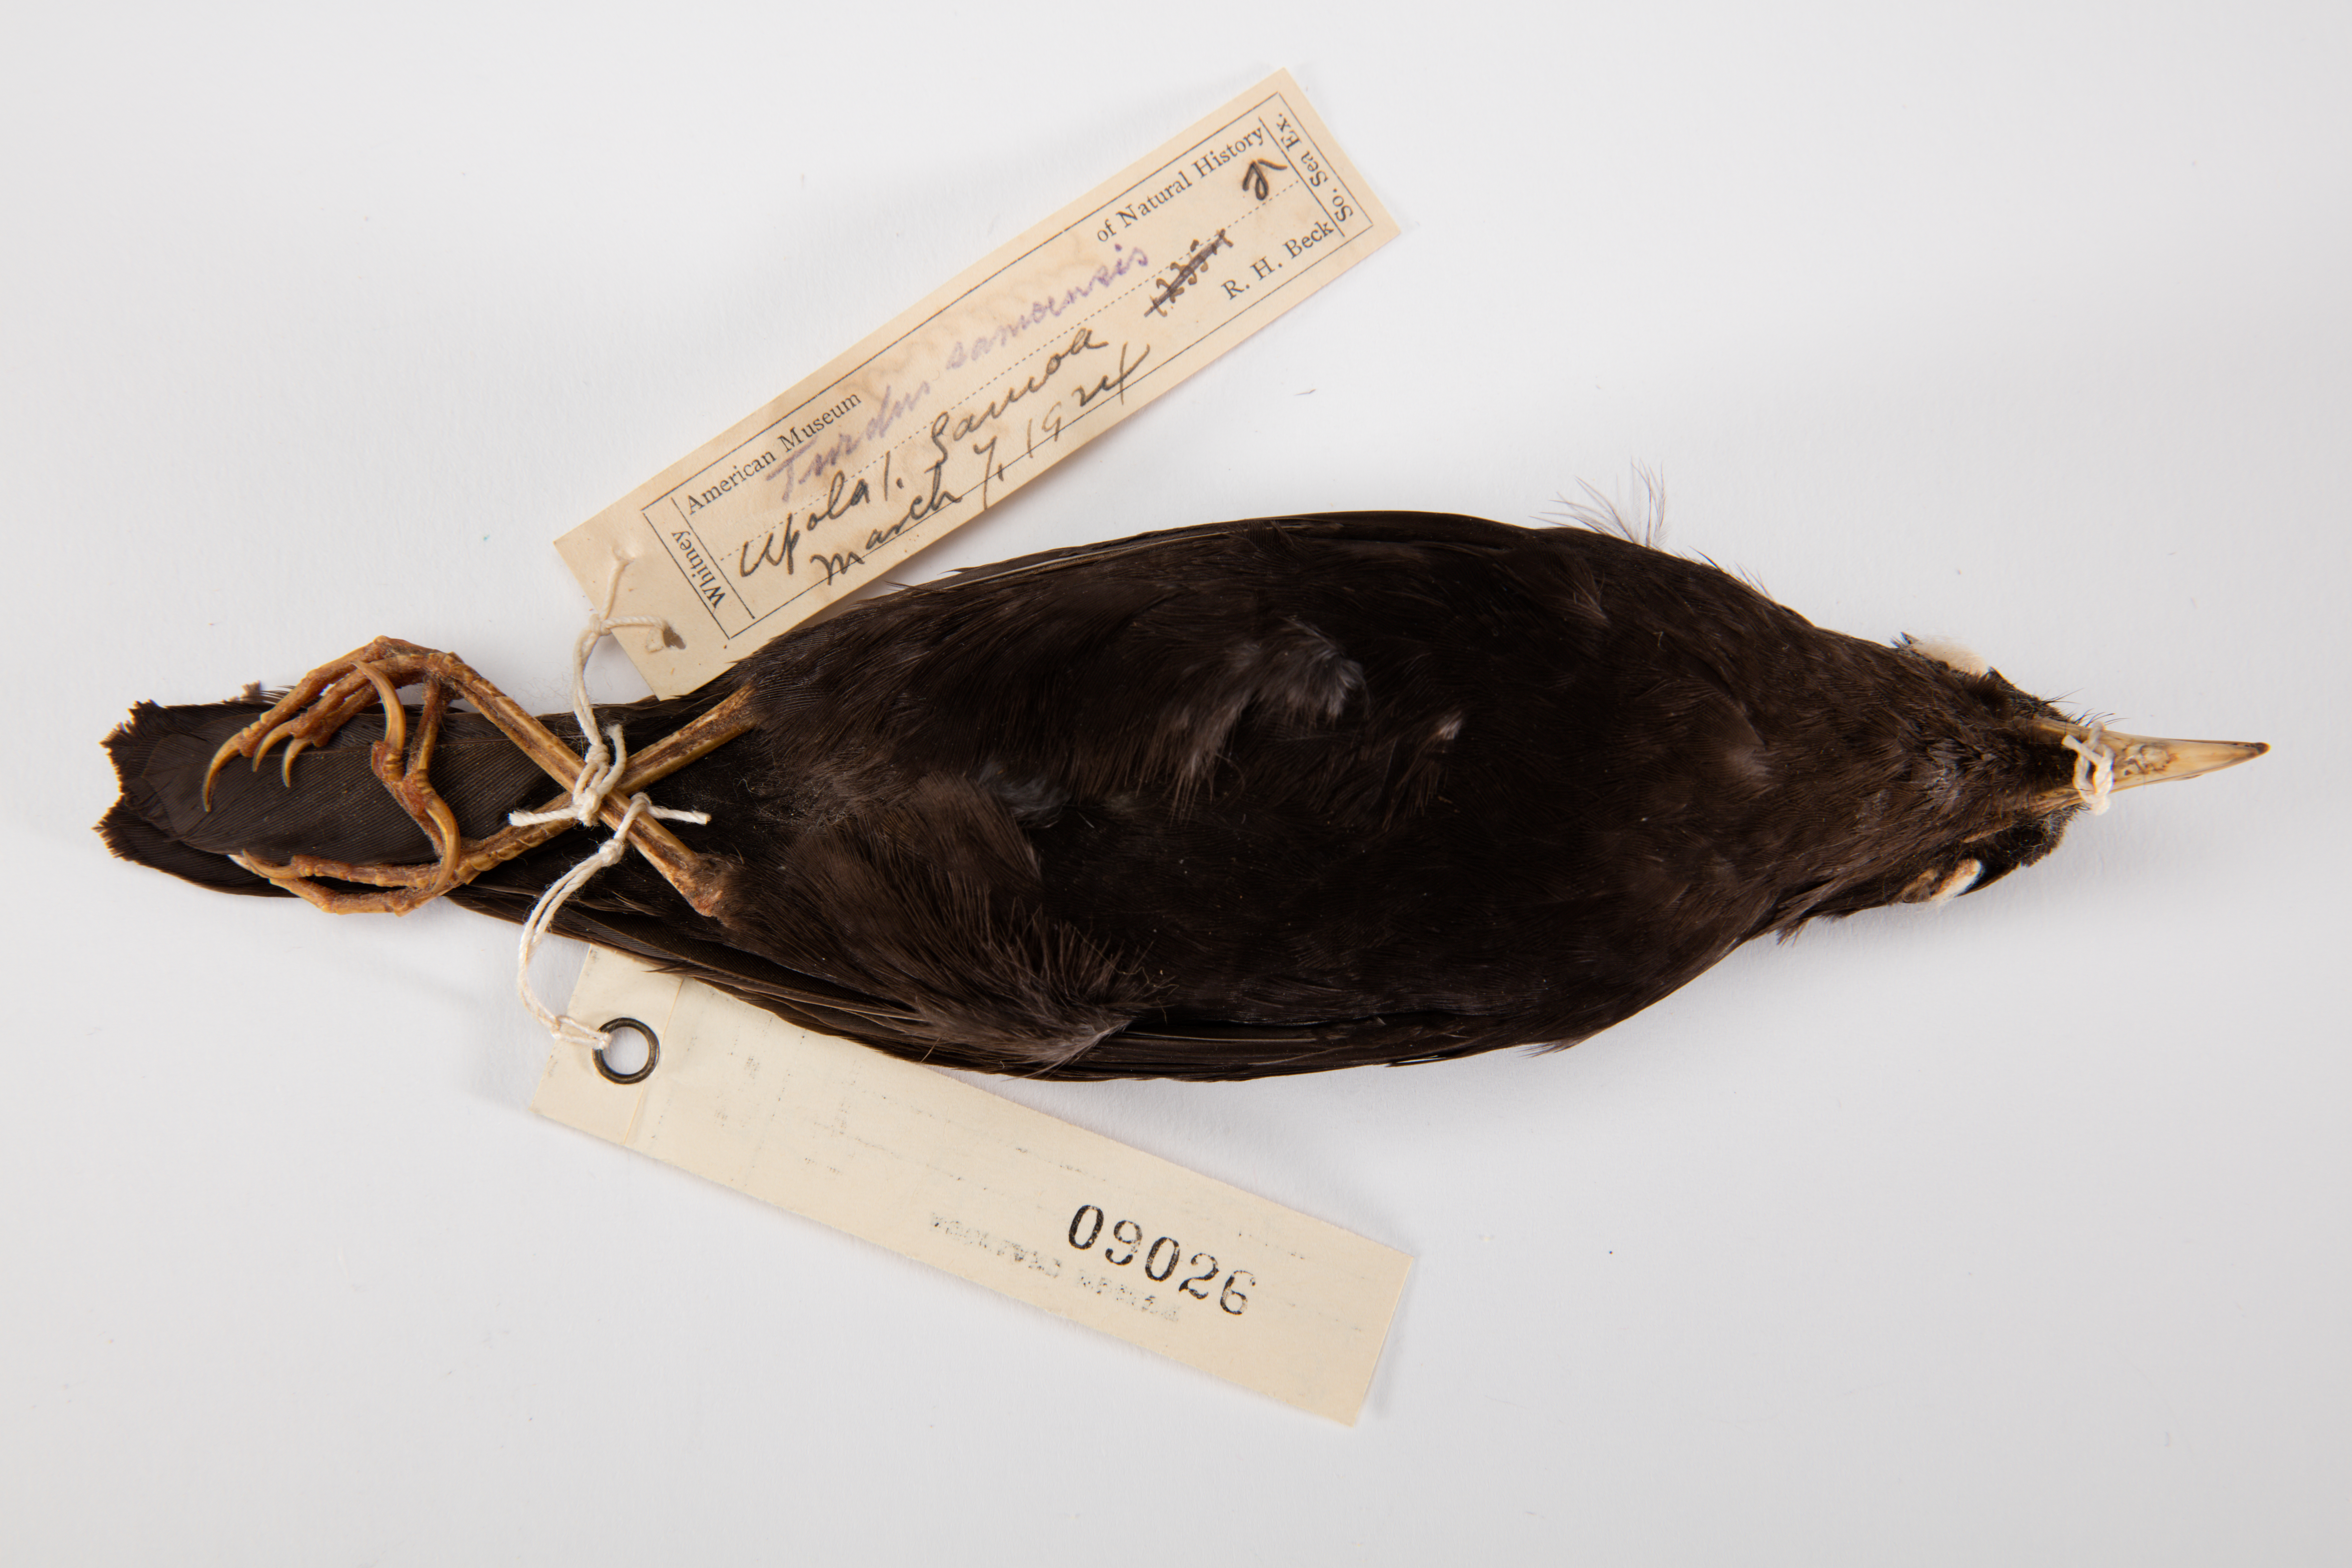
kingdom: Animalia
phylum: Chordata
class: Aves
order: Passeriformes
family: Turdidae
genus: Turdus
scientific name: Turdus poliocephalus
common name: Island thrush
